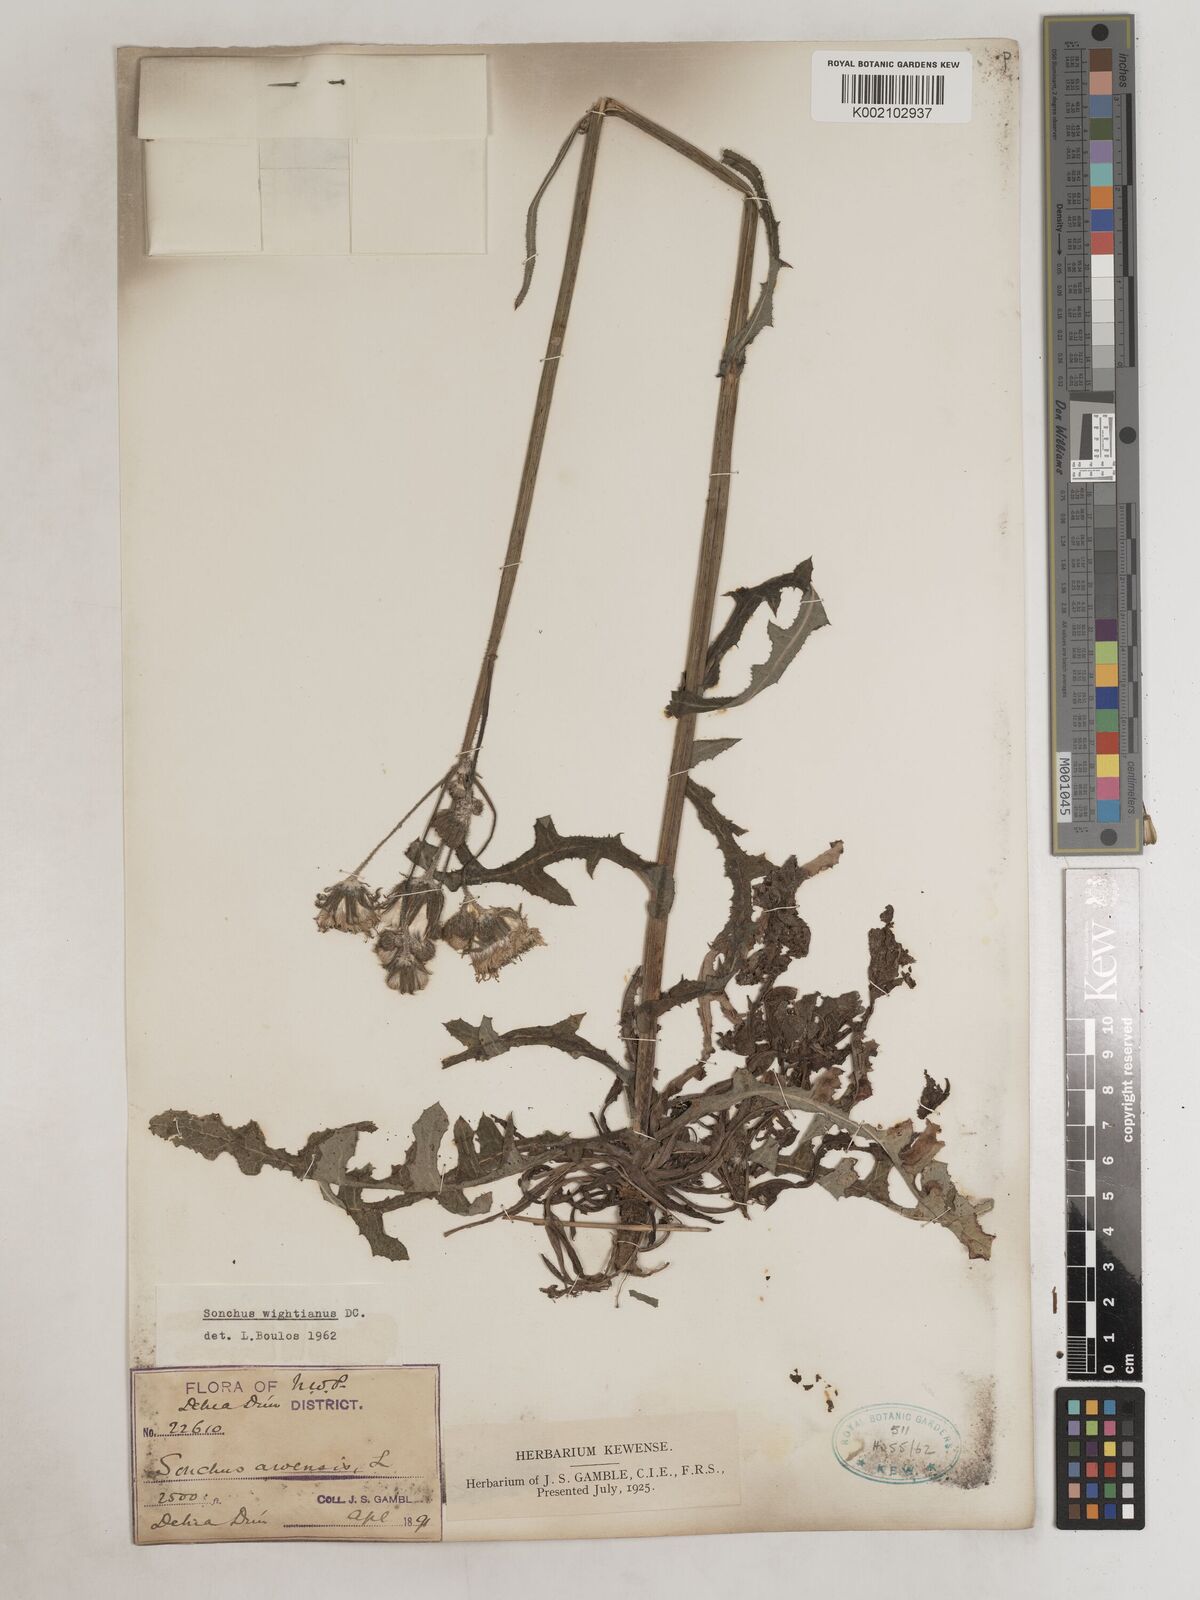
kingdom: Plantae
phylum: Tracheophyta
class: Magnoliopsida
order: Asterales
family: Asteraceae
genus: Sonchus
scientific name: Sonchus arvensis
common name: Perennial sow-thistle
